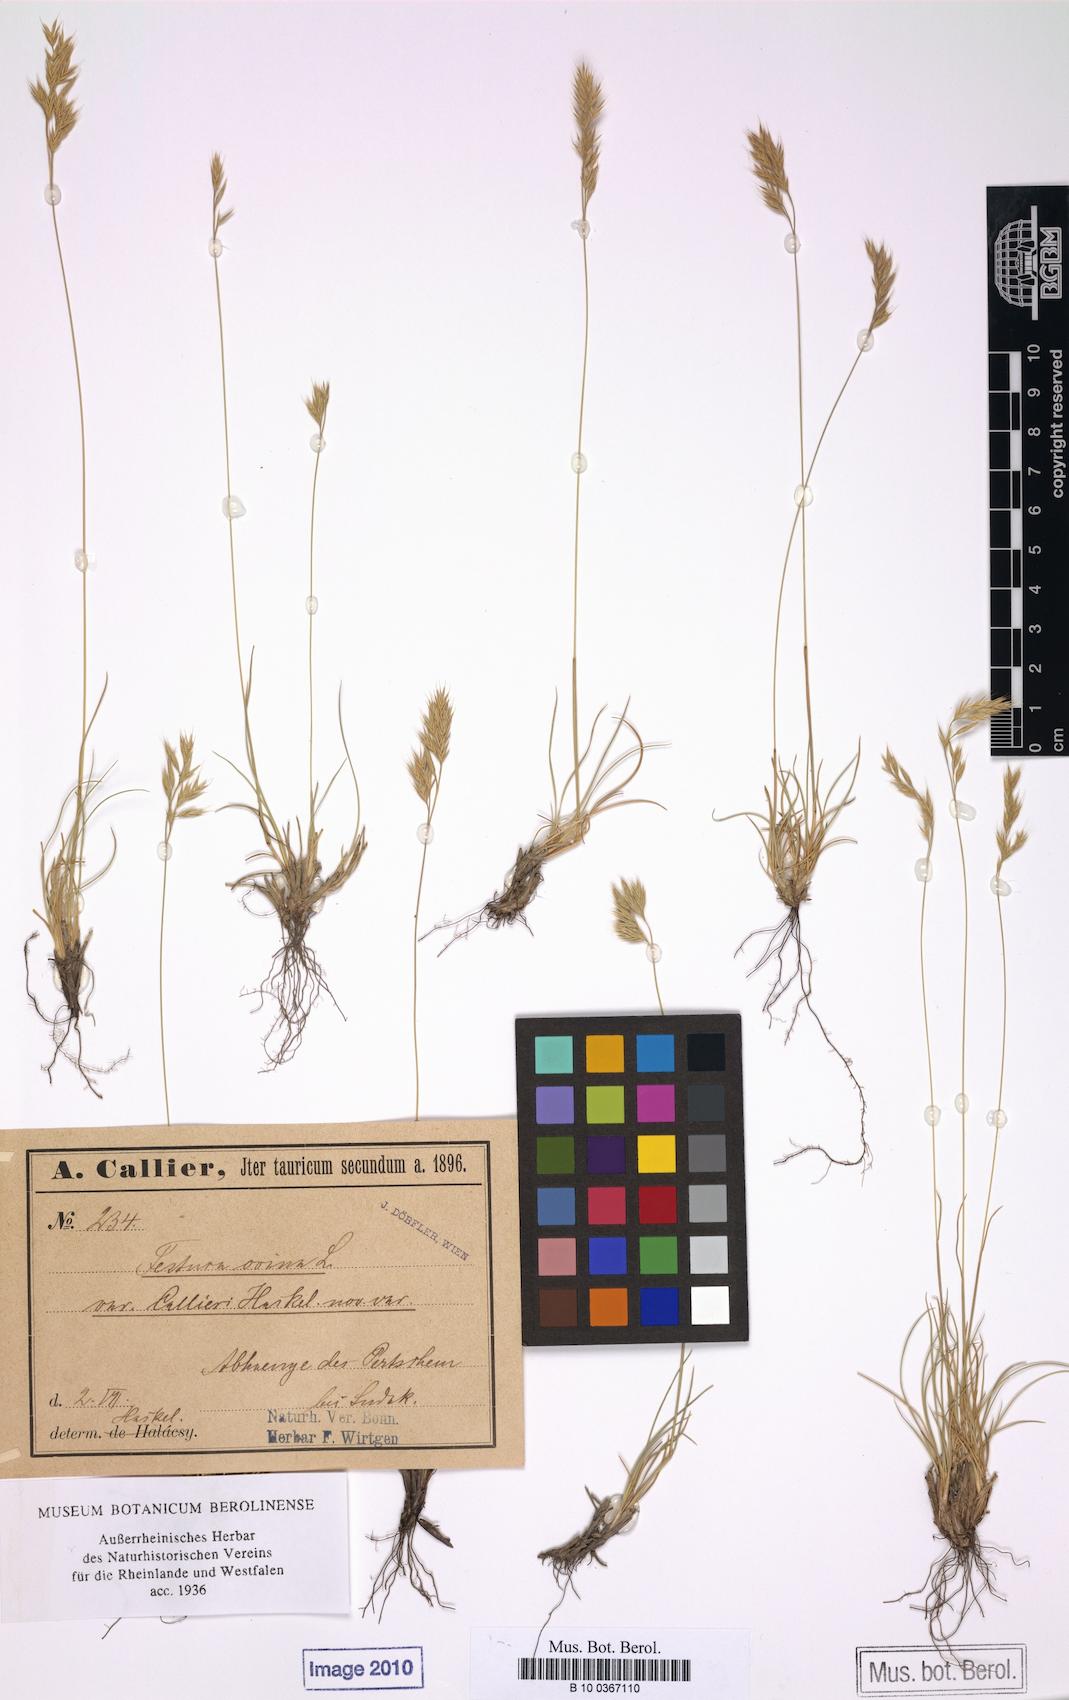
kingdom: Plantae
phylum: Tracheophyta
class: Liliopsida
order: Poales
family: Poaceae
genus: Festuca
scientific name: Festuca callieri
